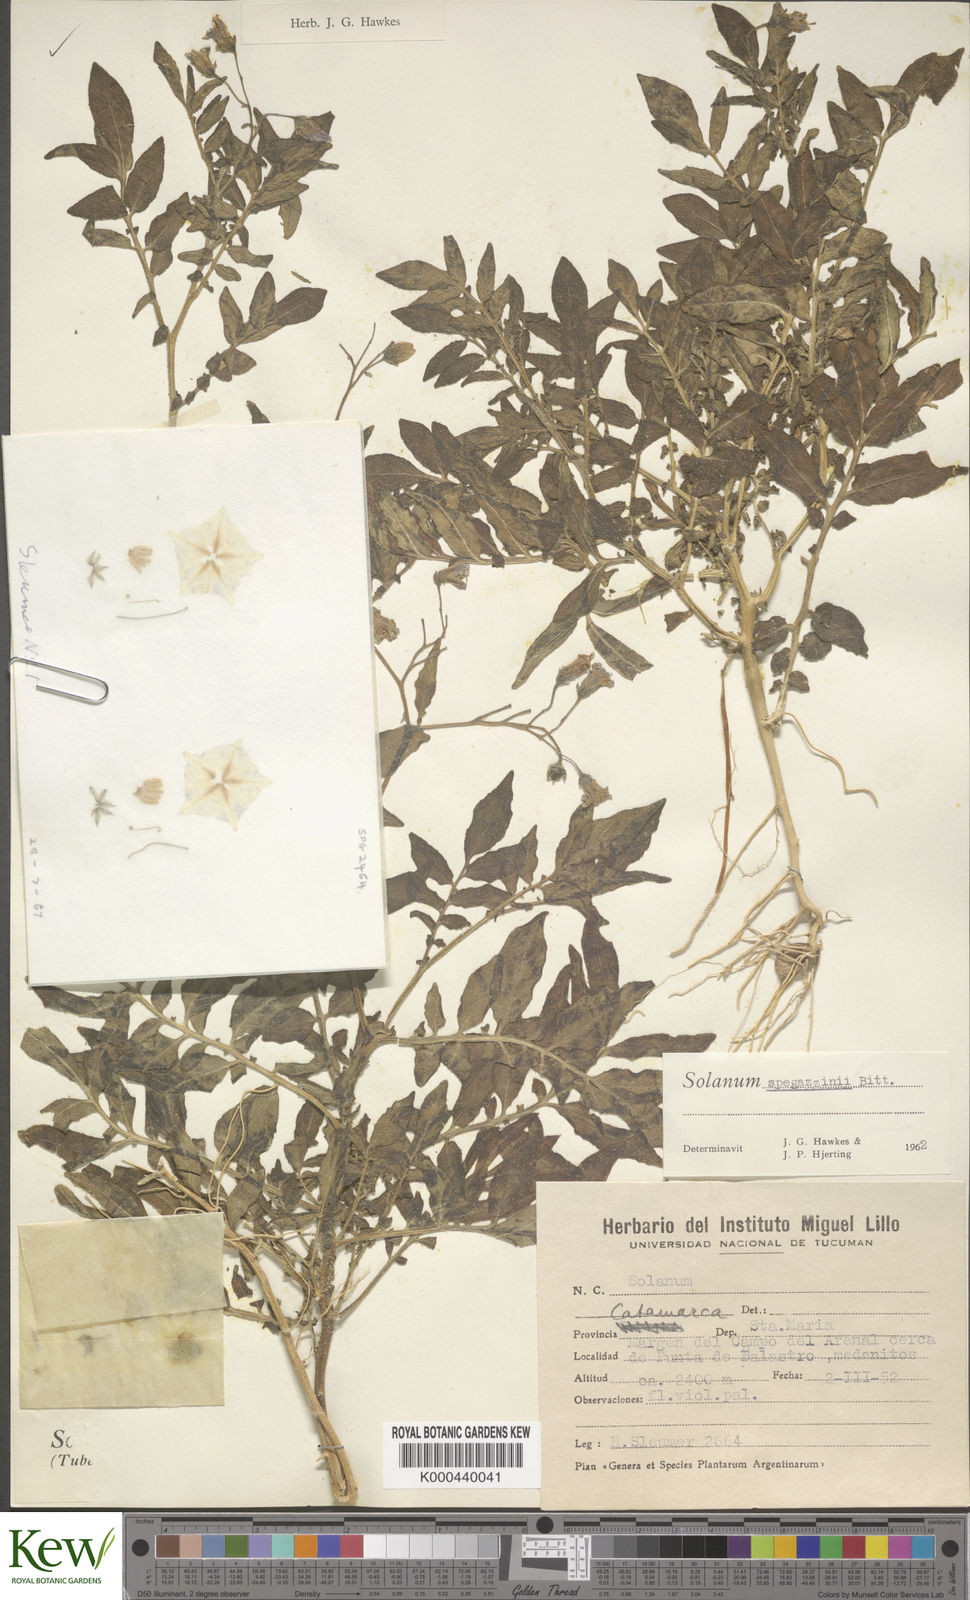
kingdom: Plantae
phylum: Tracheophyta
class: Magnoliopsida
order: Solanales
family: Solanaceae
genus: Solanum
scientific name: Solanum brevicaule
